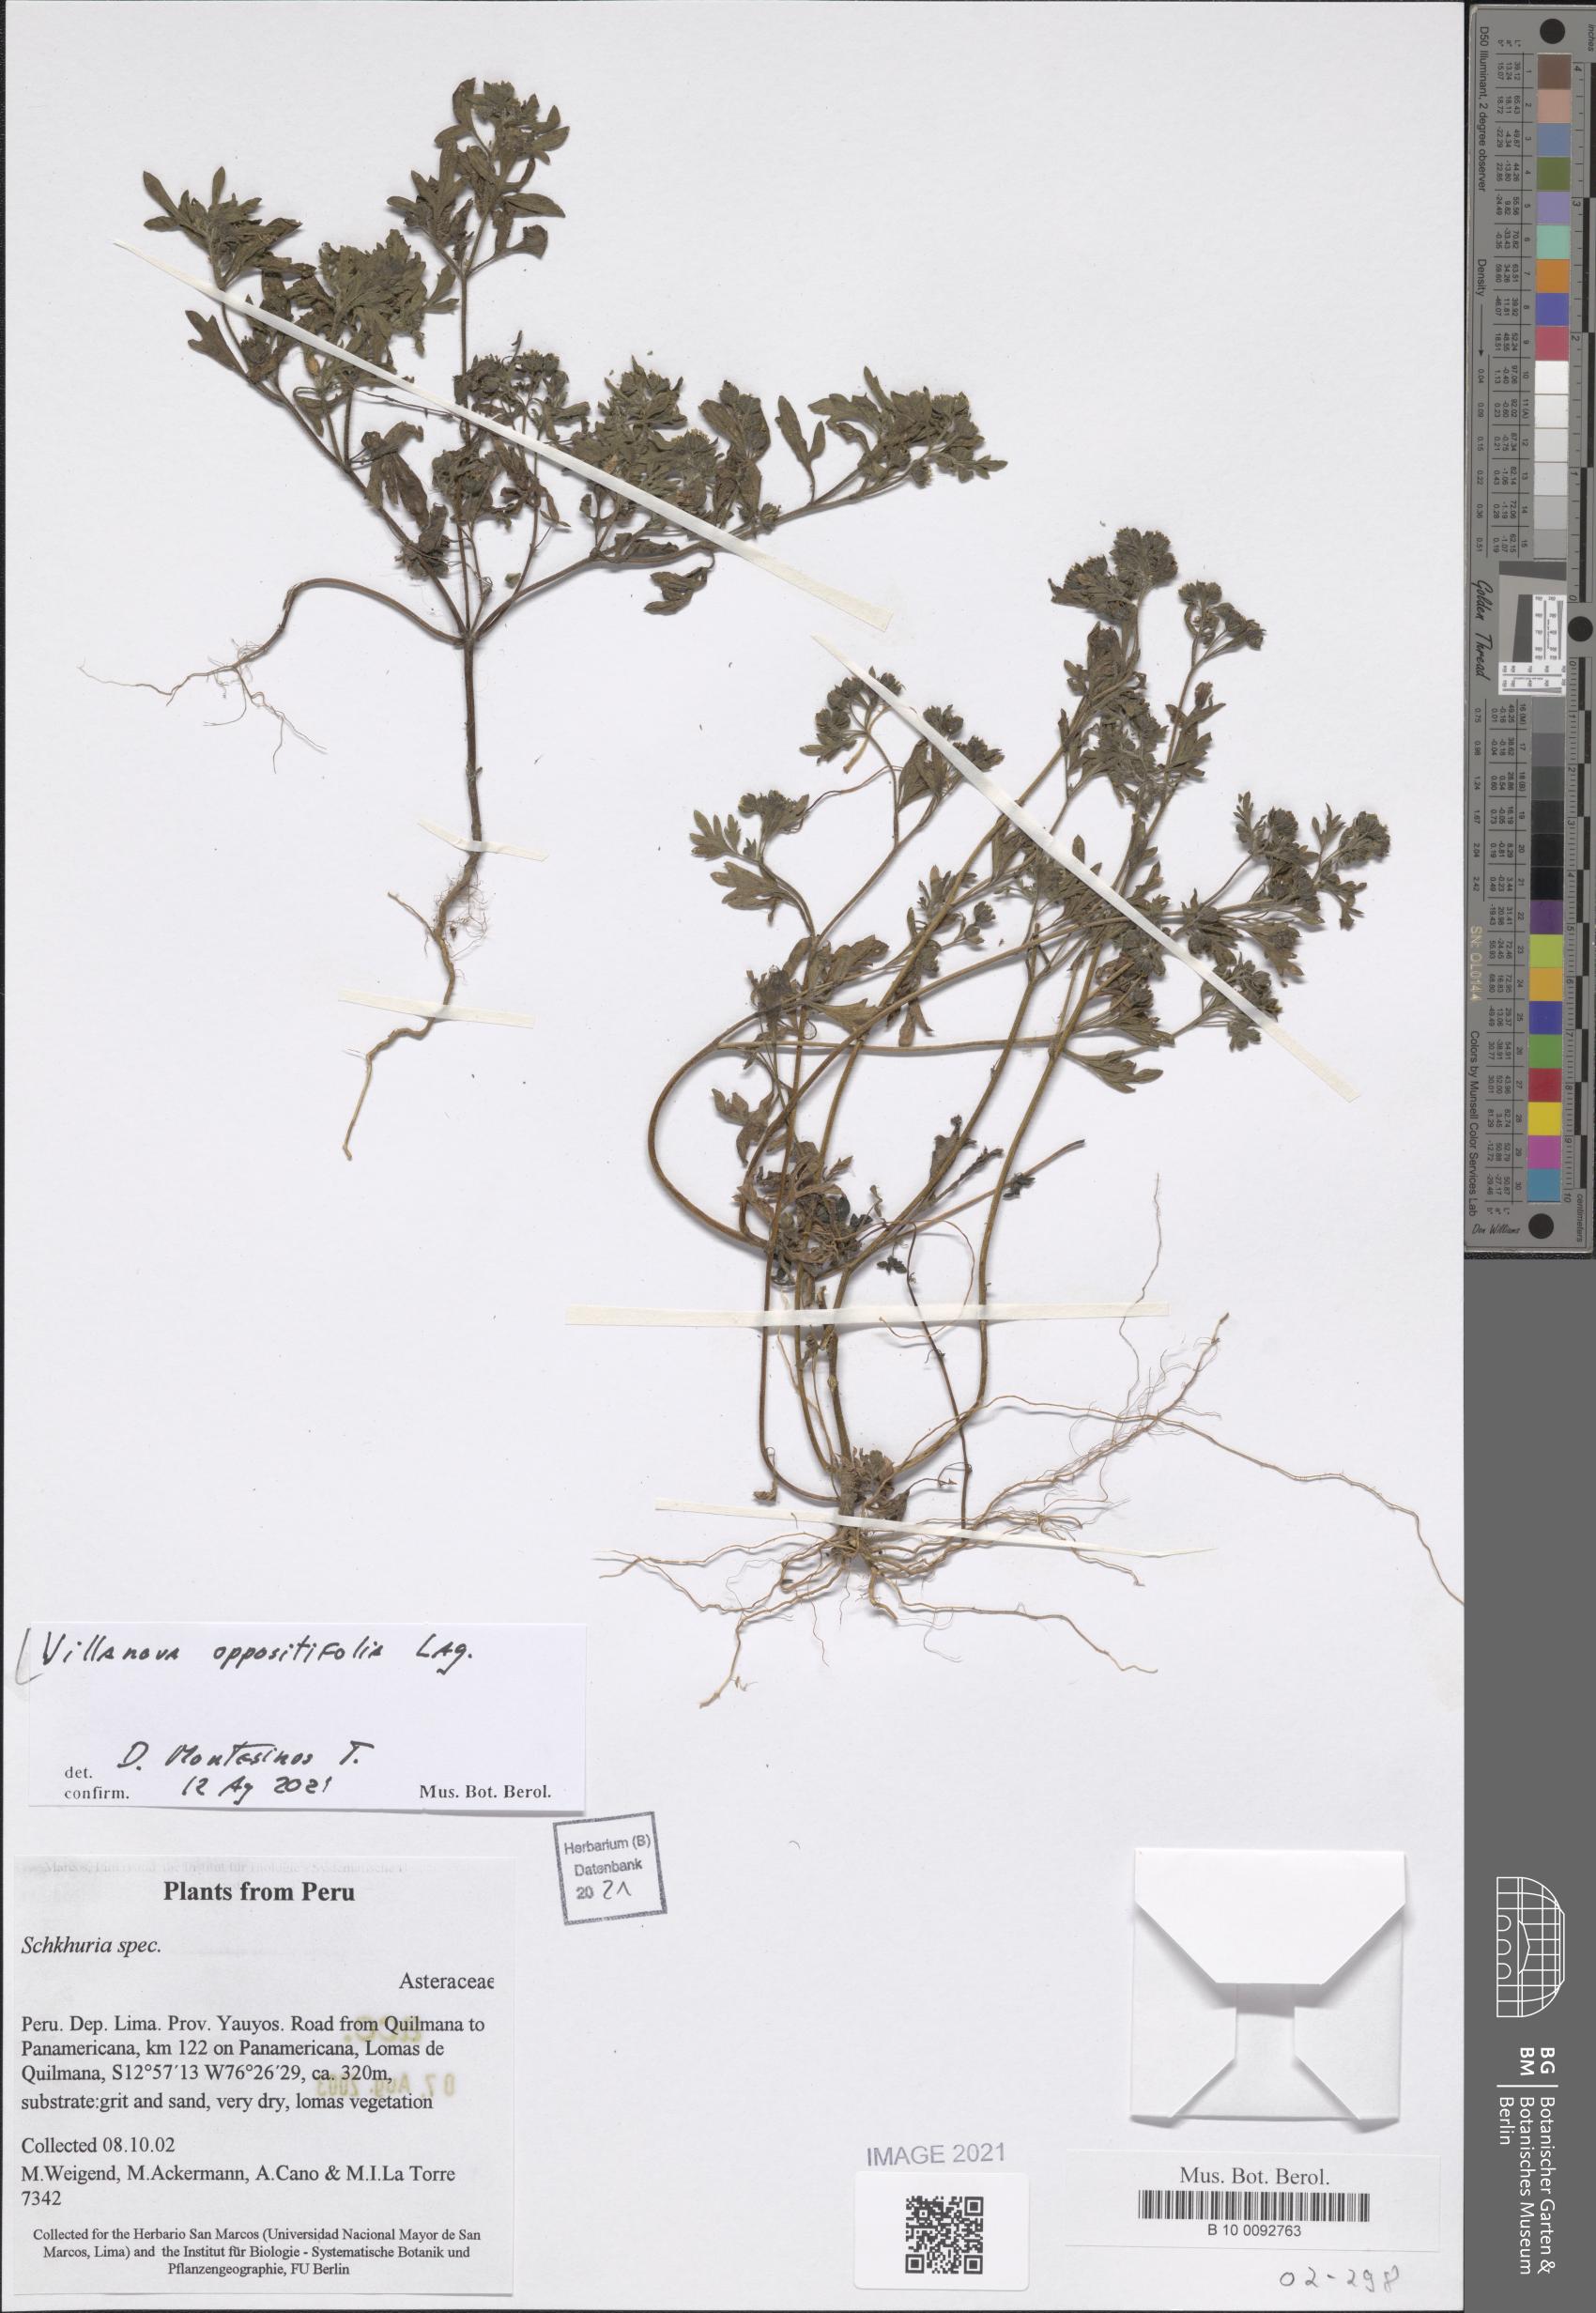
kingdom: Plantae
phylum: Tracheophyta
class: Magnoliopsida
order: Asterales
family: Asteraceae
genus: Villanova
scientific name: Villanova oppositifolia
